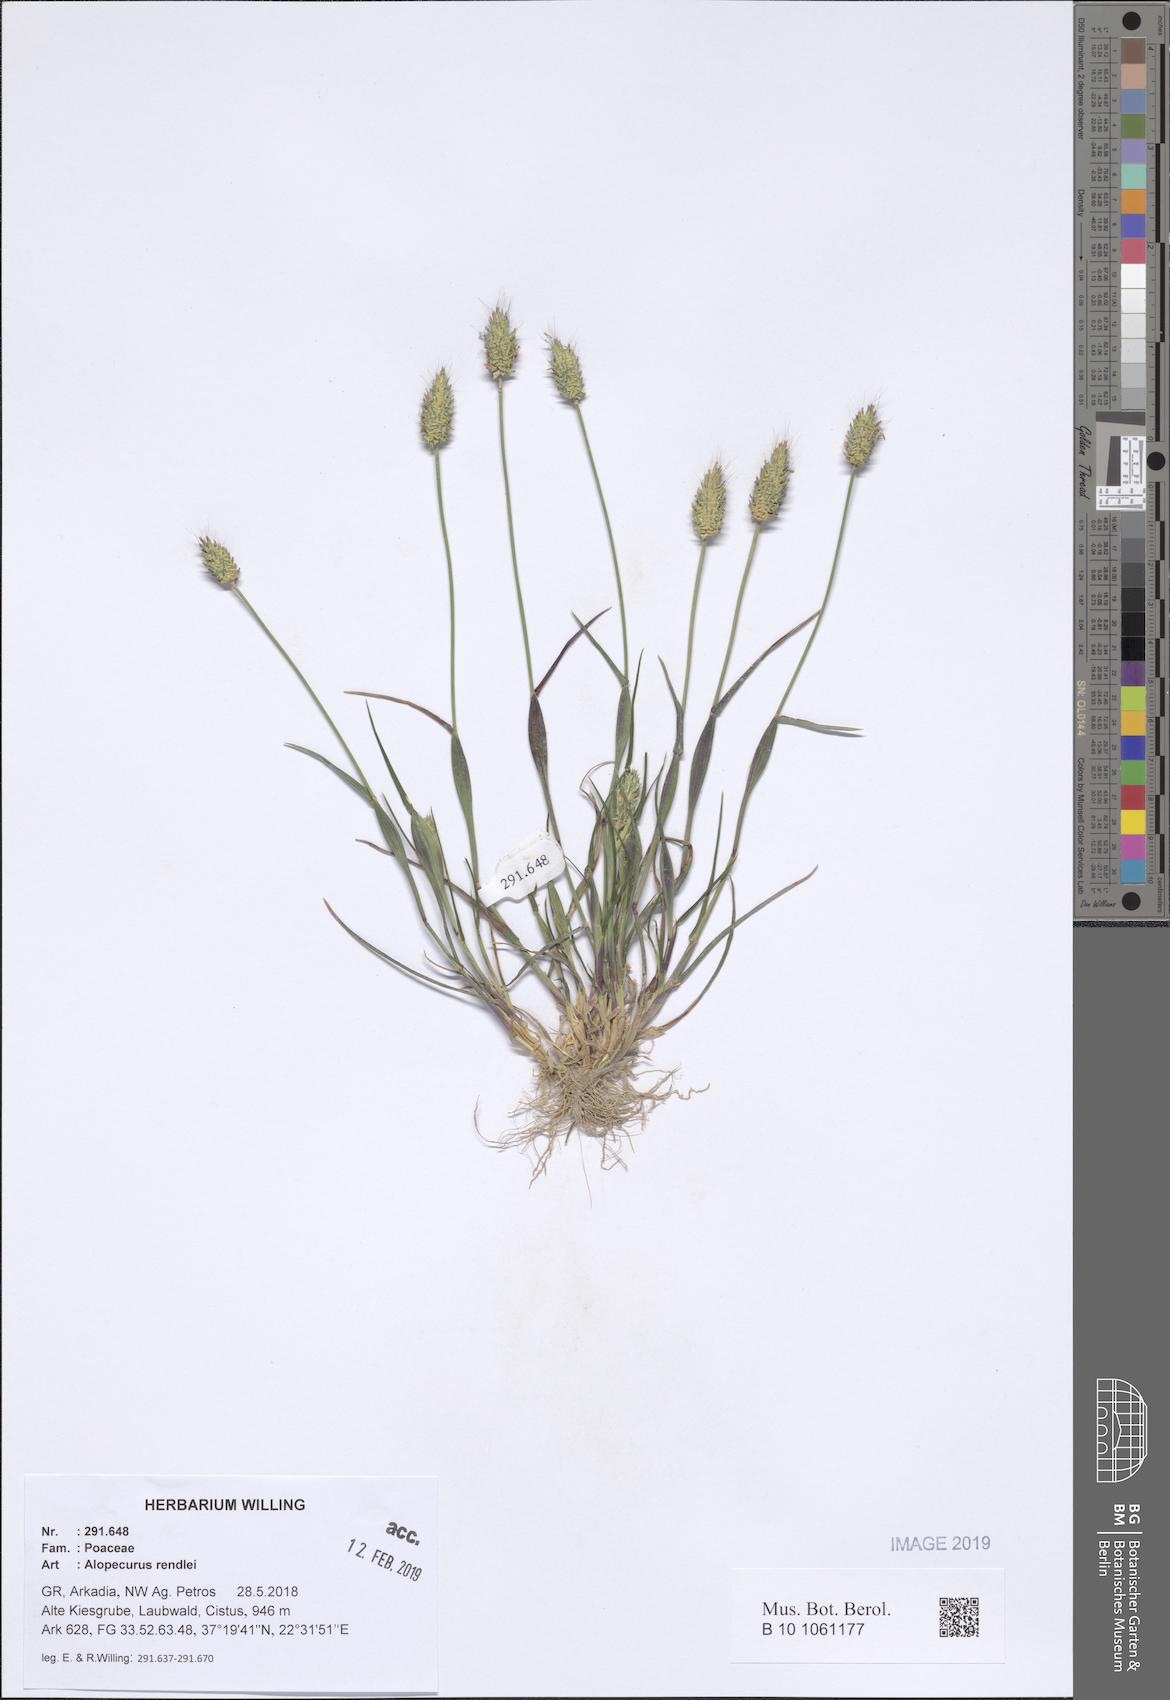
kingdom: Plantae
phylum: Tracheophyta
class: Liliopsida
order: Poales
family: Poaceae
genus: Alopecurus
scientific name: Alopecurus rendlei
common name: Rendle's meadow foxtail
